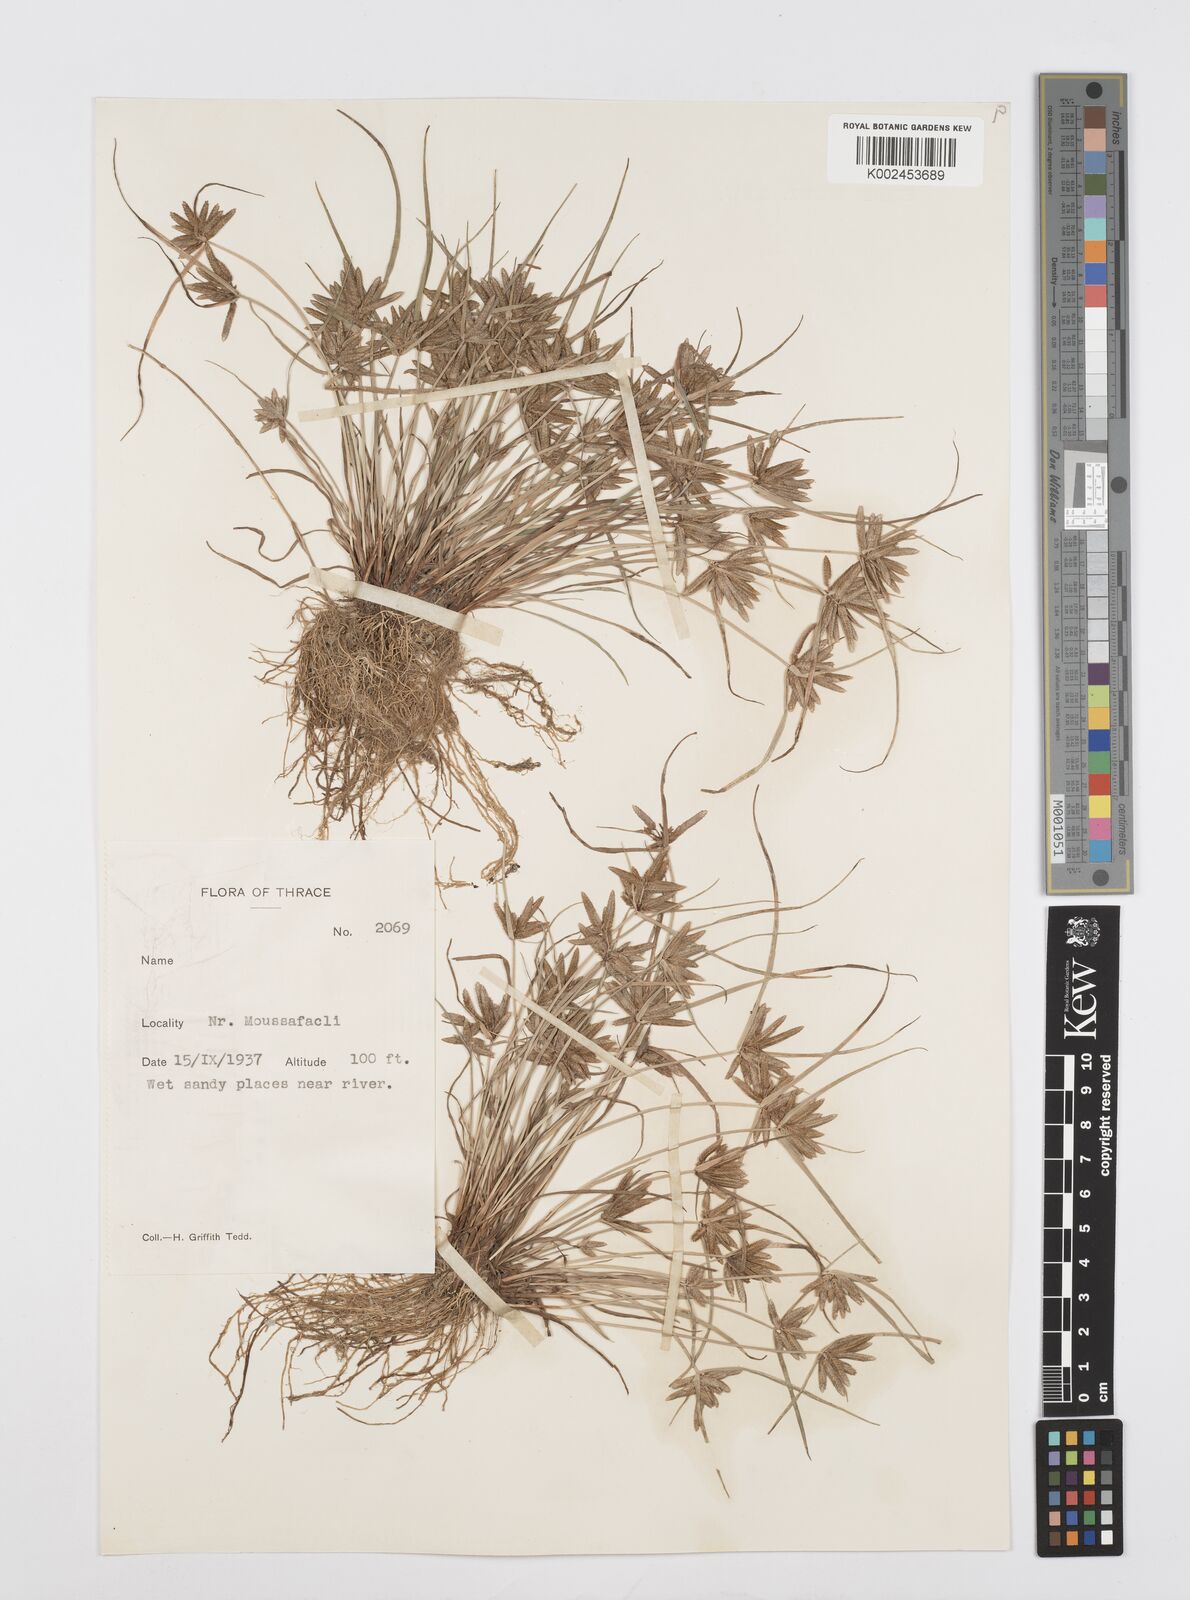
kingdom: Plantae
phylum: Tracheophyta
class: Liliopsida
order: Poales
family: Cyperaceae
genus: Cyperus
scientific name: Cyperus flavescens
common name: Yellow galingale
